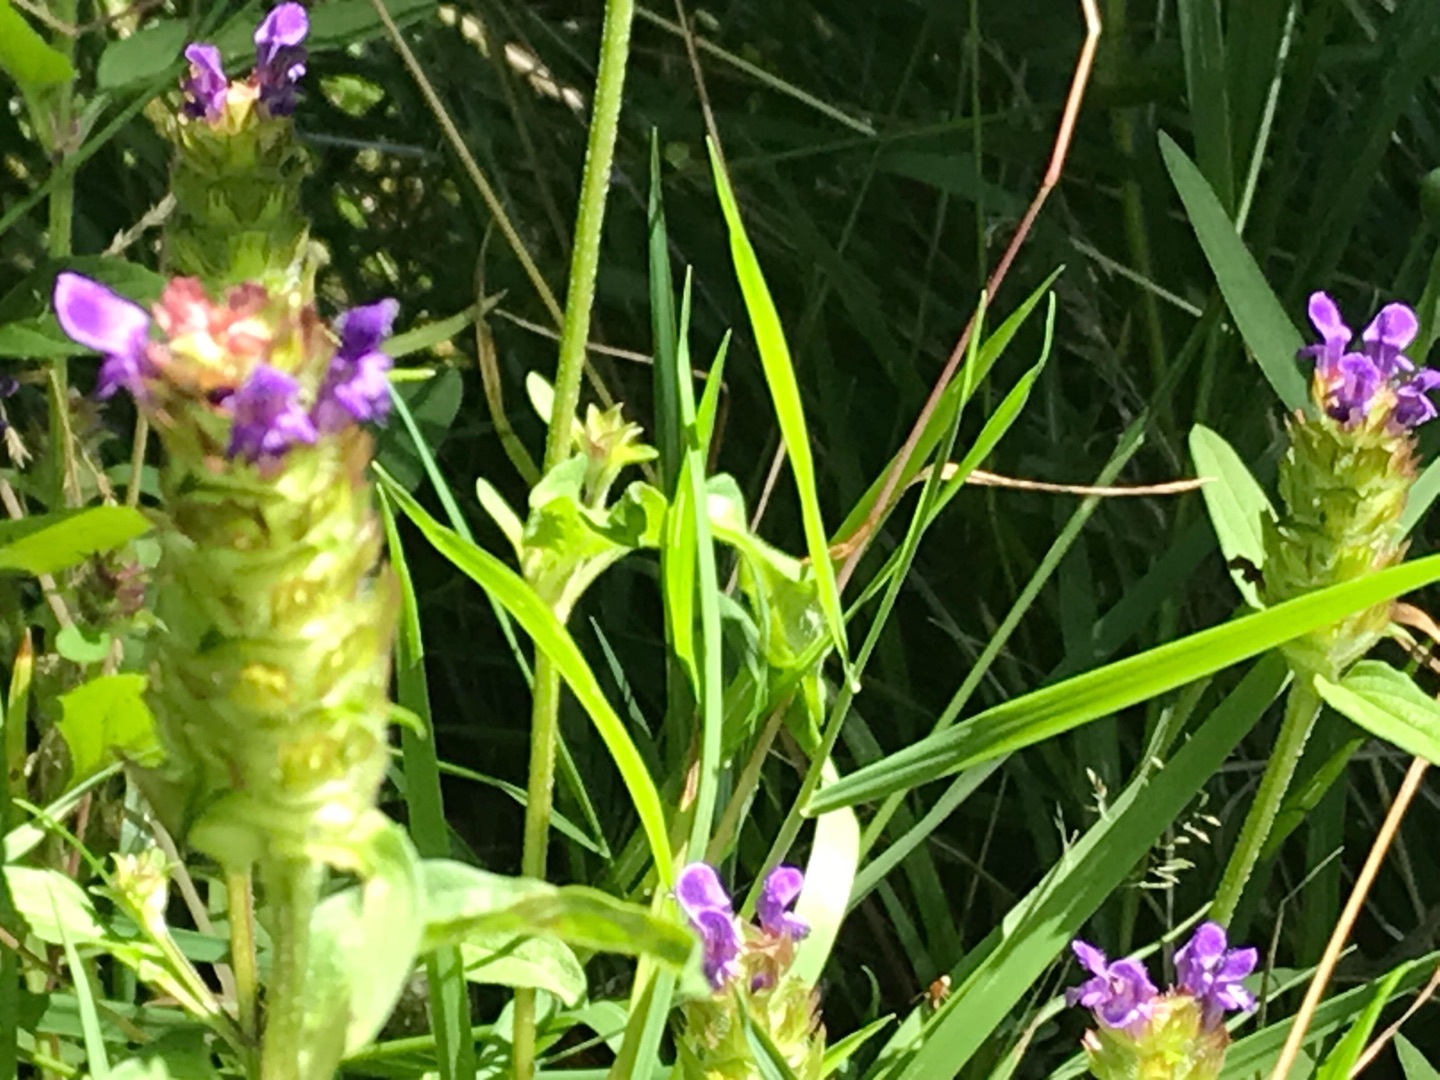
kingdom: Plantae
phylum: Tracheophyta
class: Magnoliopsida
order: Lamiales
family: Lamiaceae
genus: Prunella
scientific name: Prunella vulgaris
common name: Almindelig brunelle
